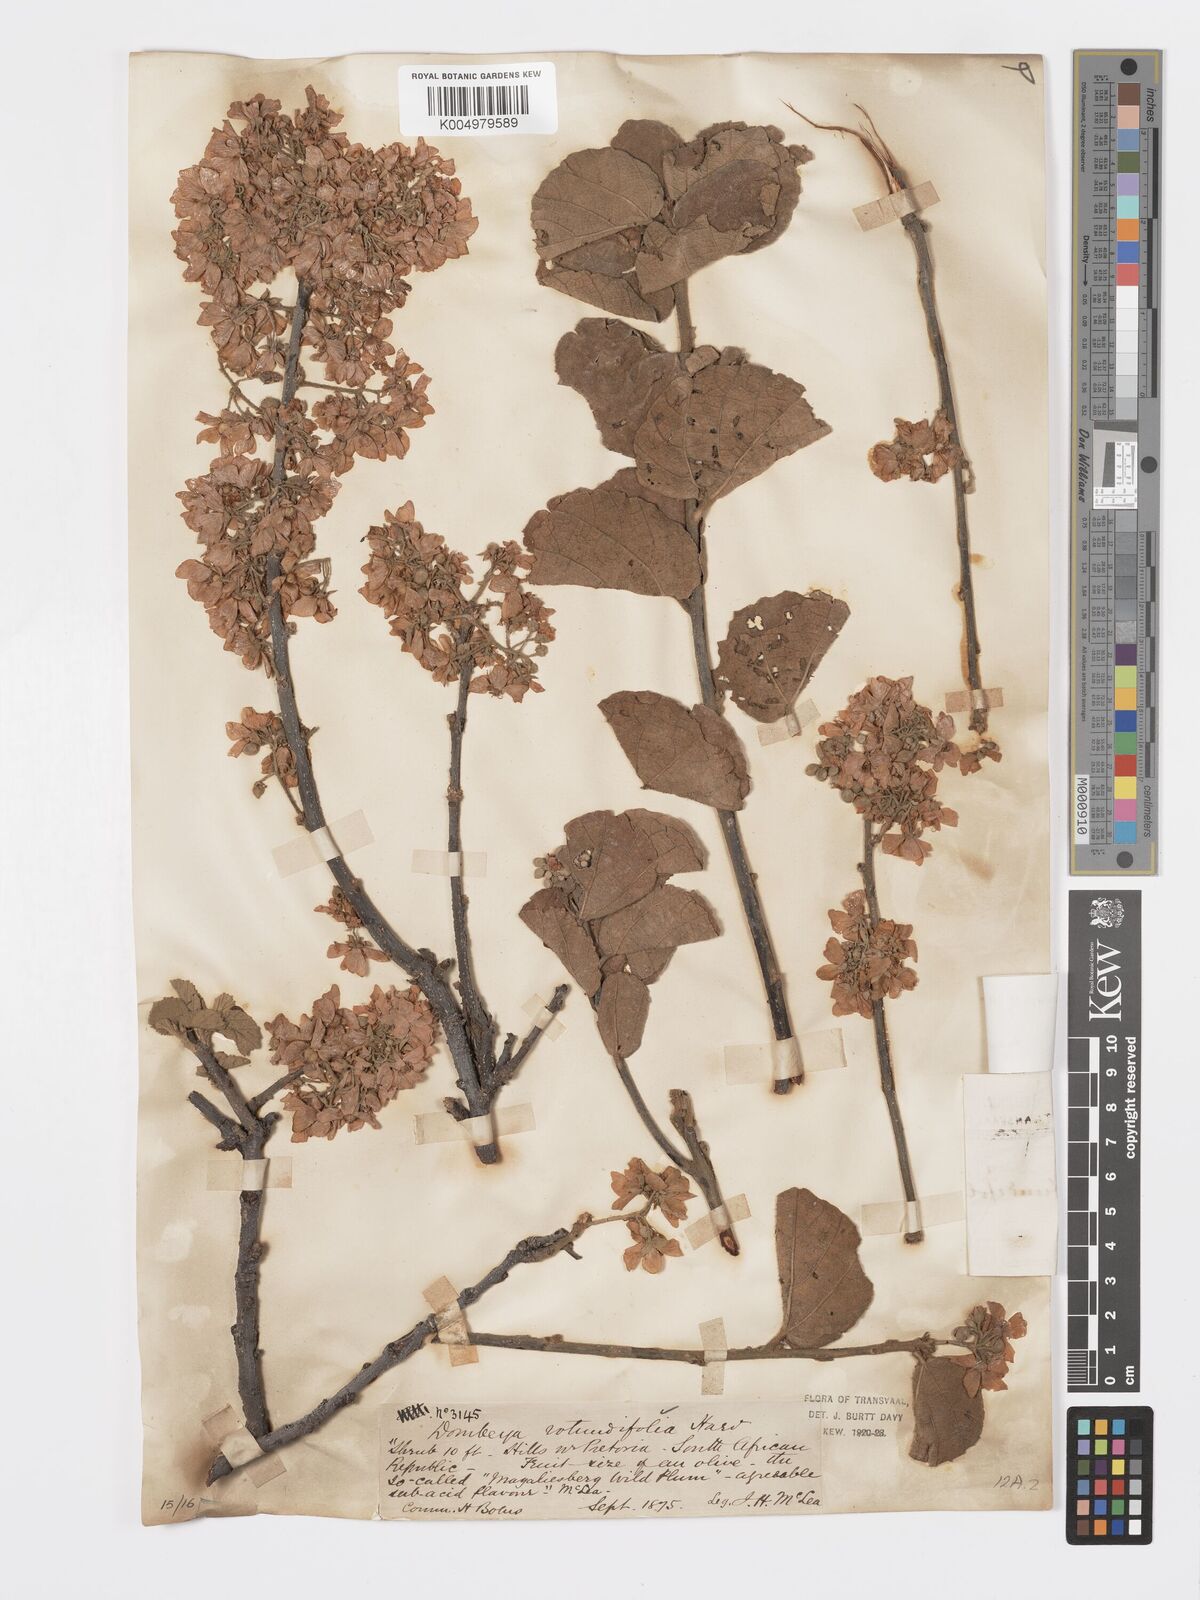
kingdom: Plantae
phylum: Tracheophyta
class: Magnoliopsida
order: Malvales
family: Malvaceae
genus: Dombeya
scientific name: Dombeya rotundifolia
